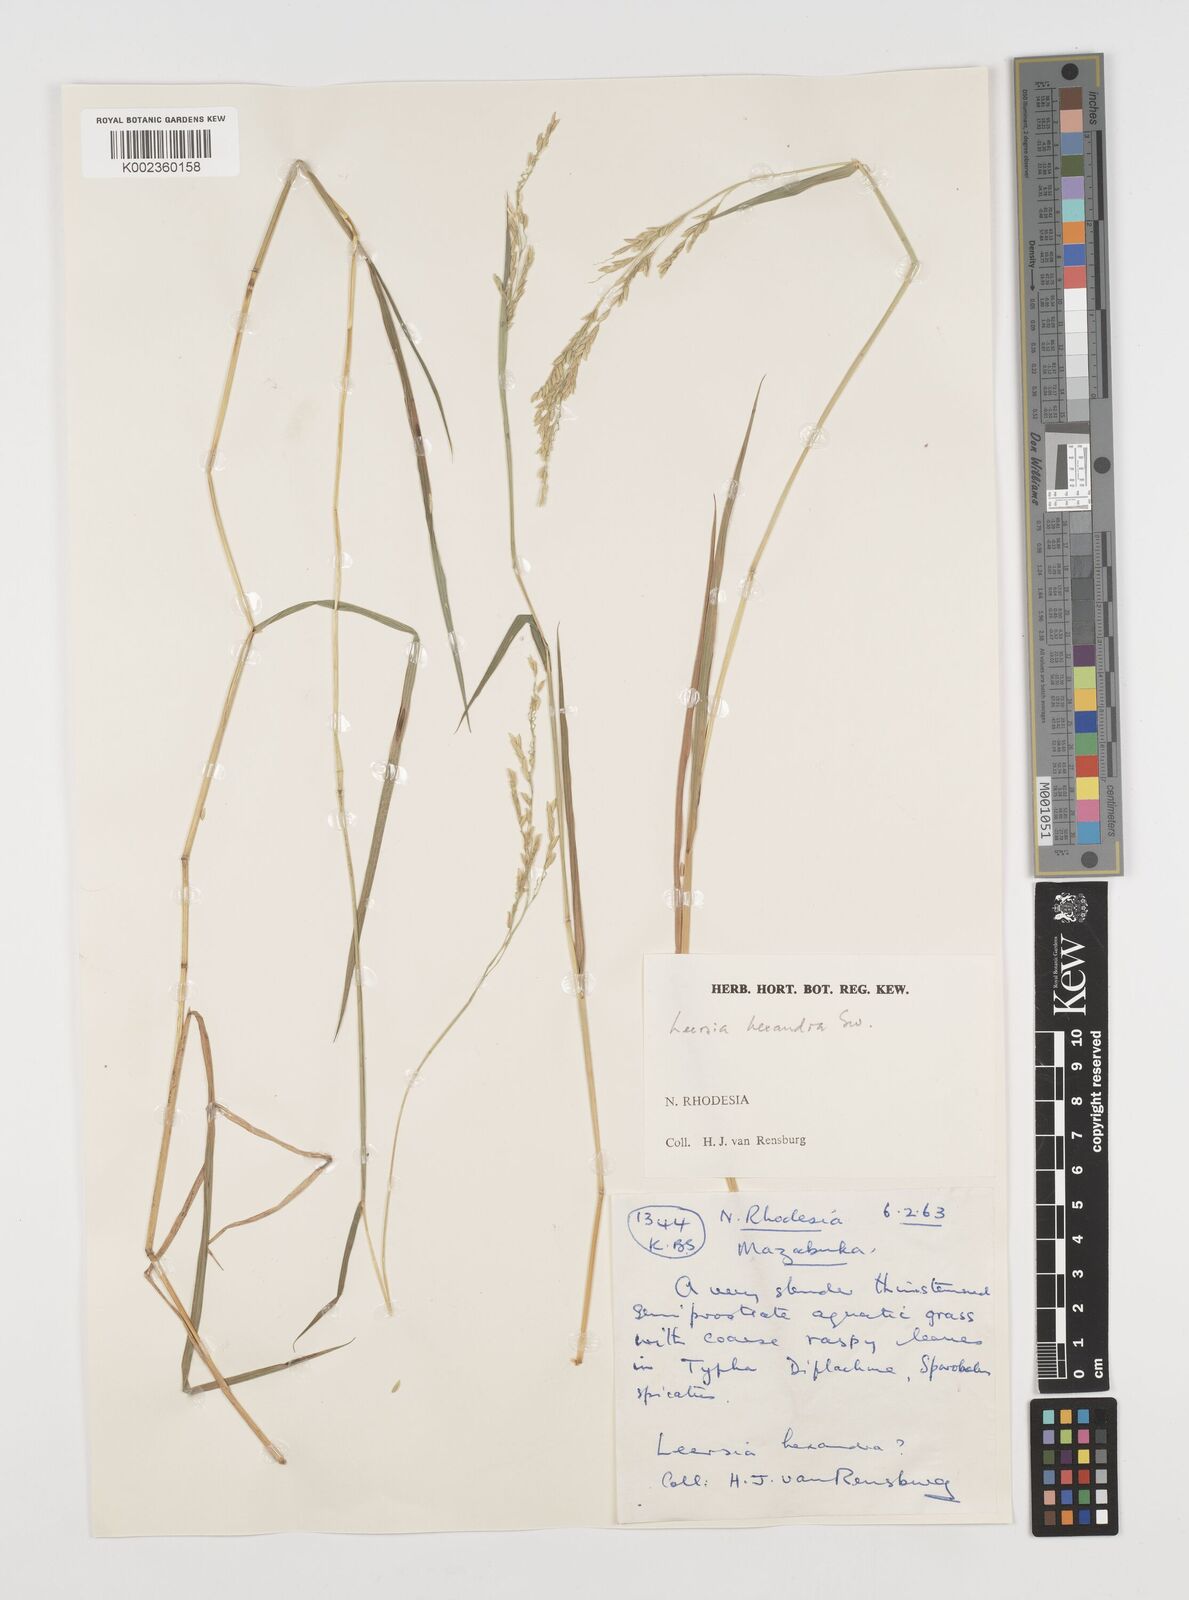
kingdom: Plantae
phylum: Tracheophyta
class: Liliopsida
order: Poales
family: Poaceae
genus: Leersia
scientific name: Leersia hexandra
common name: Southern cut grass
